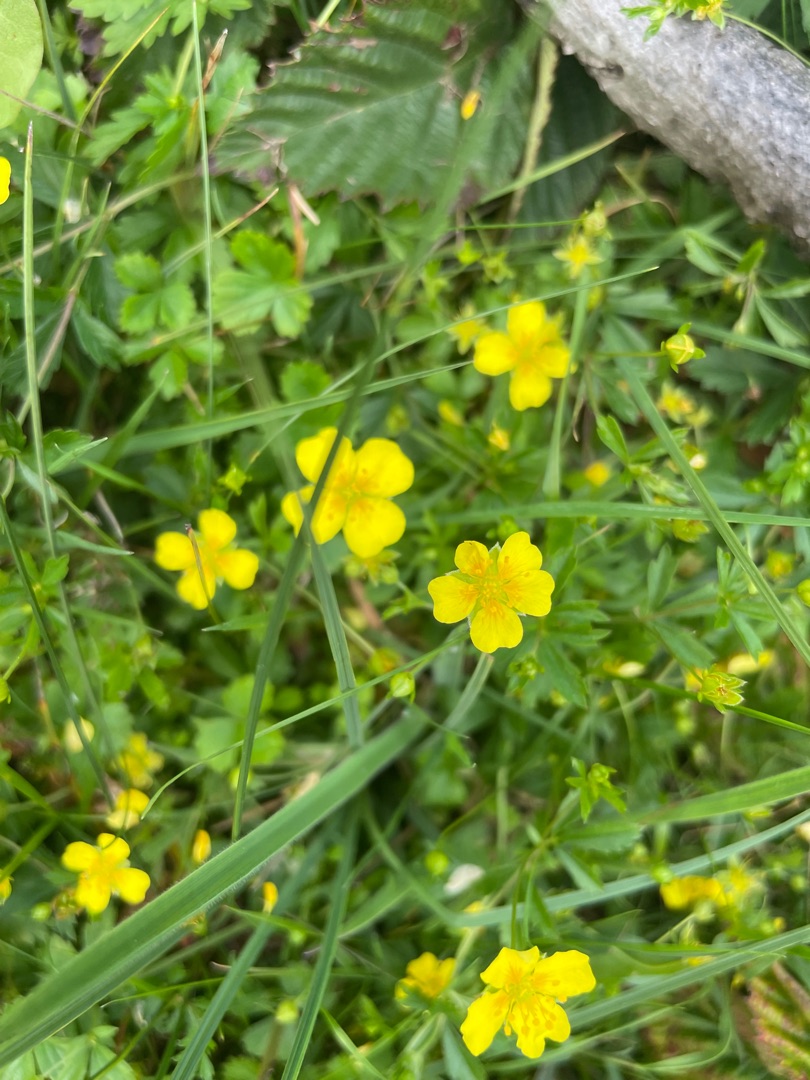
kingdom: Plantae
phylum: Tracheophyta
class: Magnoliopsida
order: Rosales
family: Rosaceae
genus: Potentilla
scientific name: Potentilla erecta
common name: Tormentil
